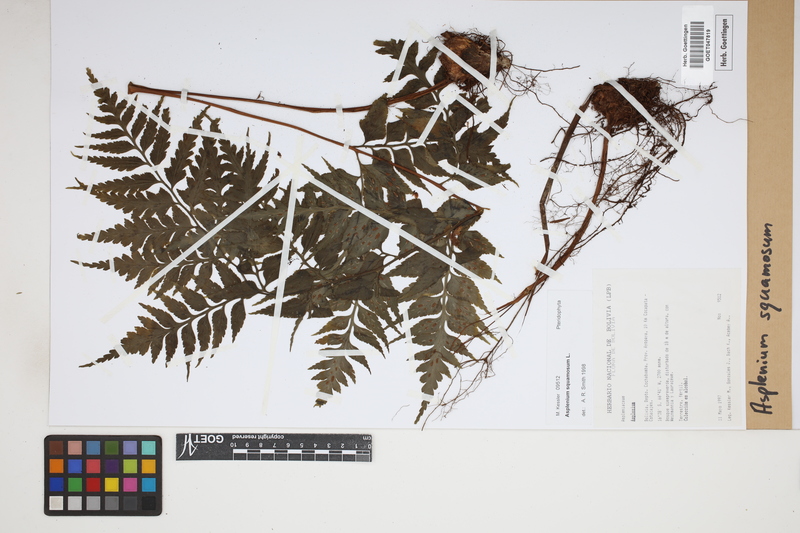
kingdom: Plantae
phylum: Tracheophyta
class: Polypodiopsida
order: Polypodiales
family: Aspleniaceae
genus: Asplenium
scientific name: Asplenium squamosum
